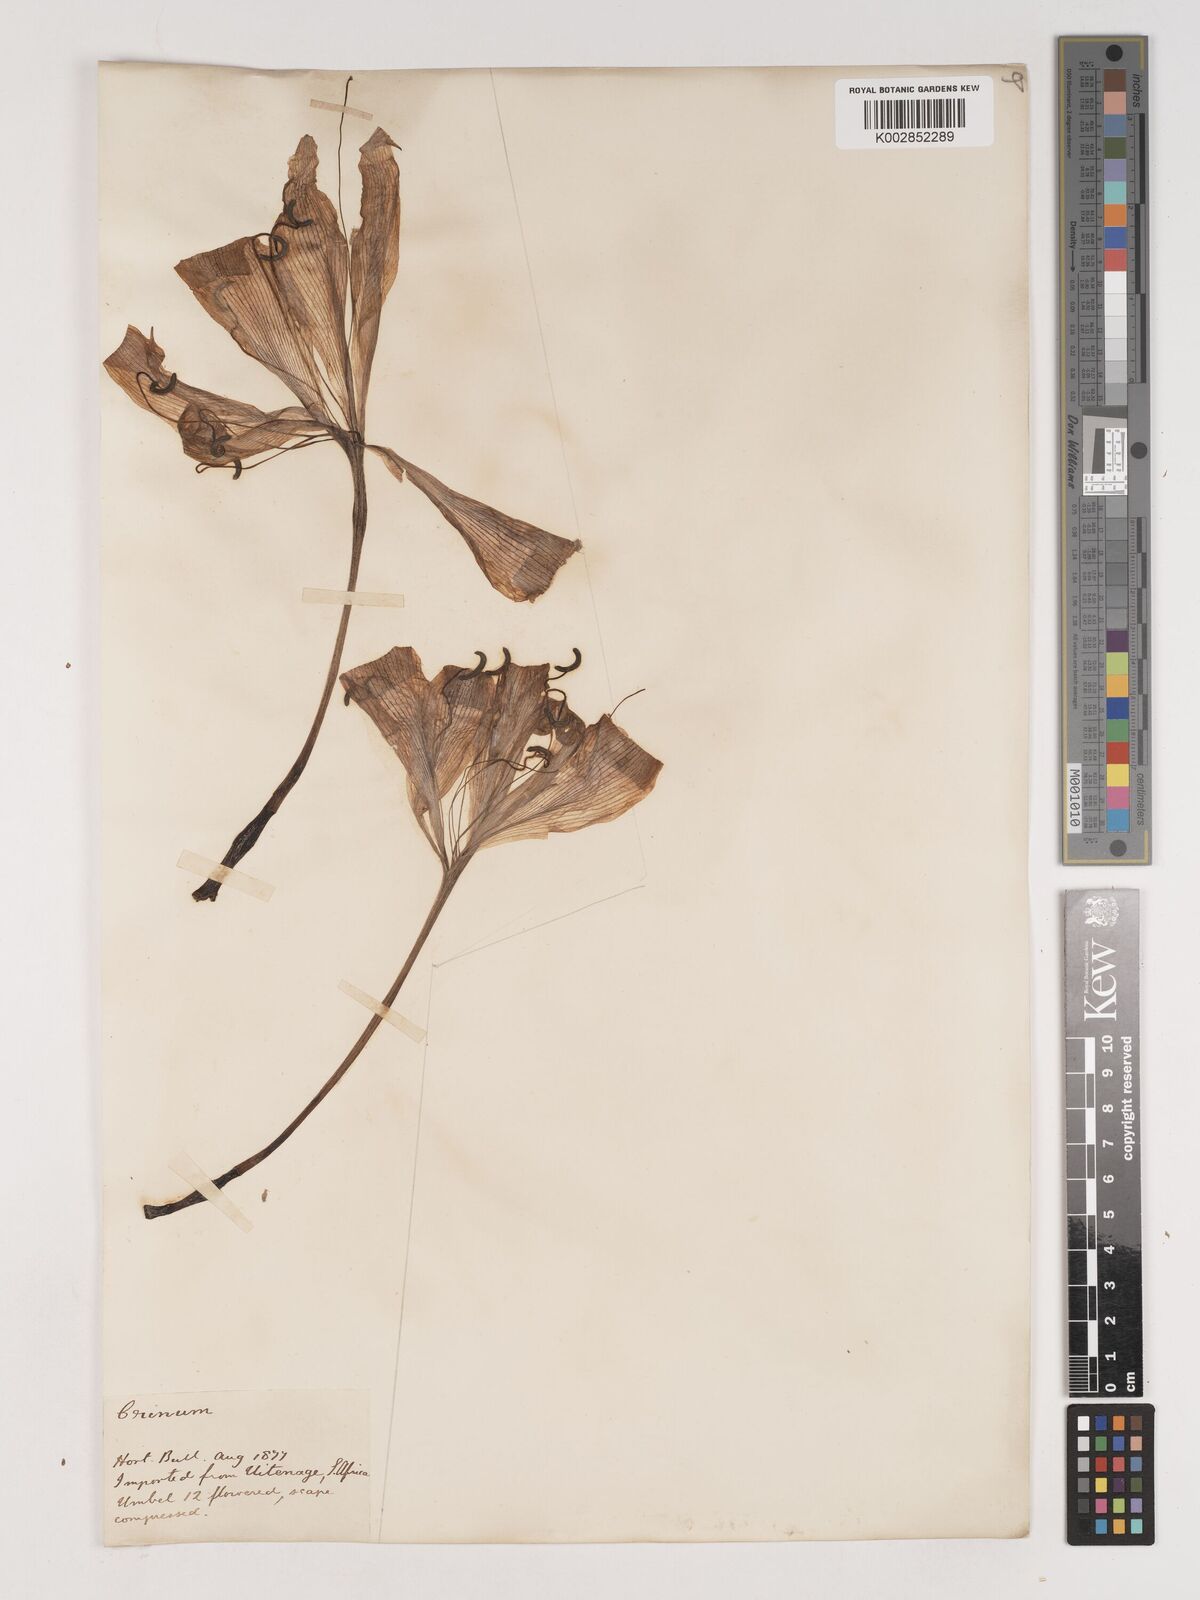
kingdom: Plantae
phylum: Tracheophyta
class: Liliopsida
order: Asparagales
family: Amaryllidaceae
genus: Crinum
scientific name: Crinum
